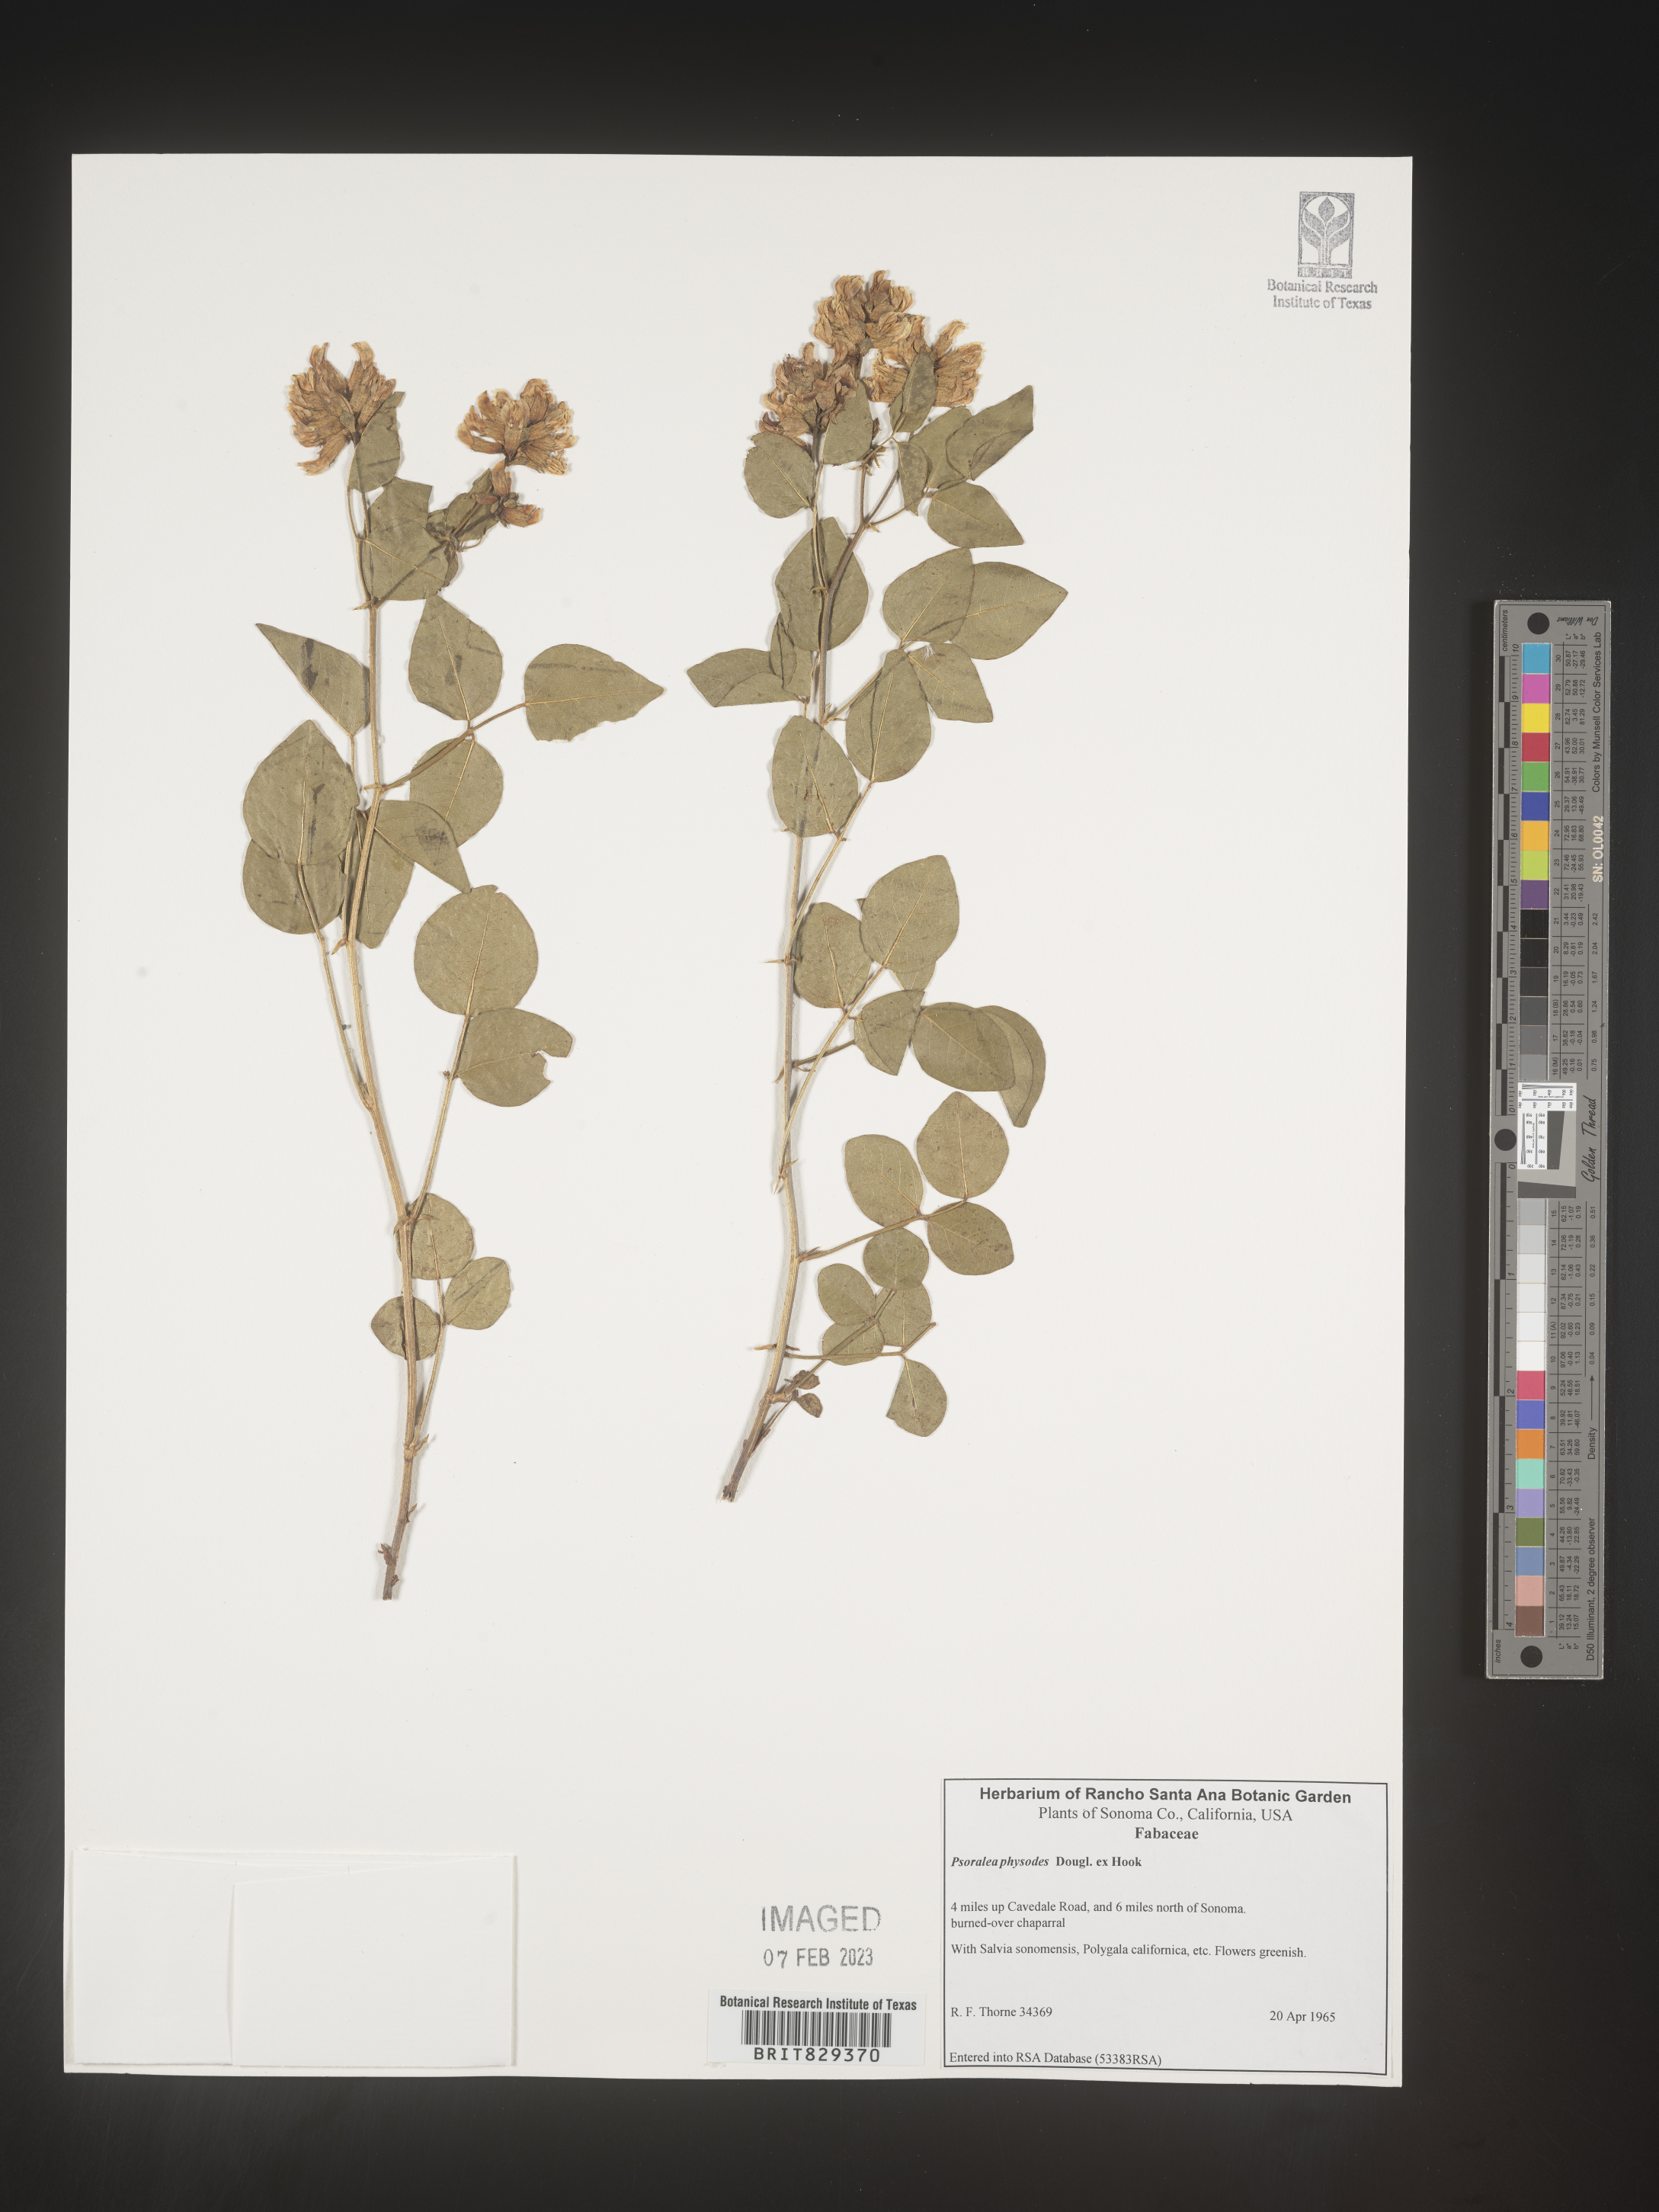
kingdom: Plantae
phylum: Tracheophyta
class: Magnoliopsida
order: Fabales
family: Fabaceae
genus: Psoralea
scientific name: Psoralea
